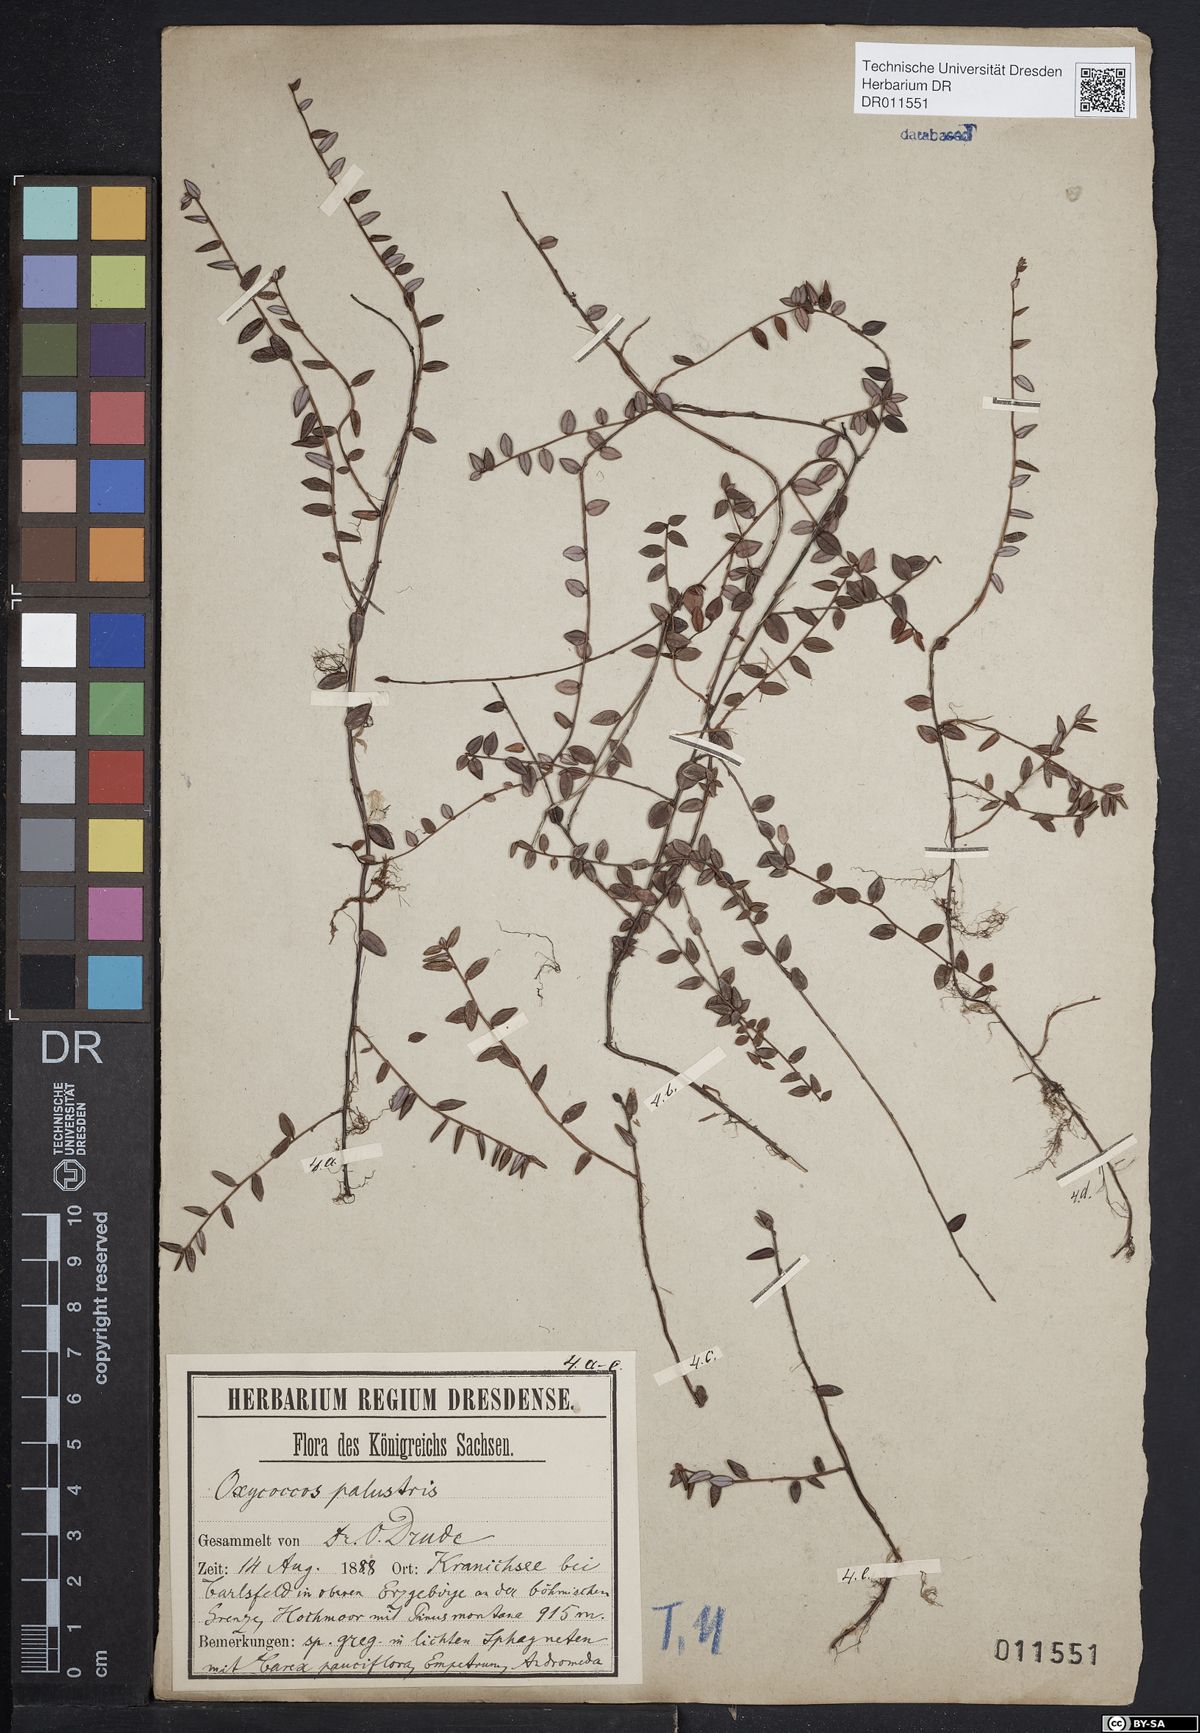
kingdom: Plantae
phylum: Tracheophyta
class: Magnoliopsida
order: Ericales
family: Ericaceae
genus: Vaccinium
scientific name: Vaccinium oxycoccos
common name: Cranberry
